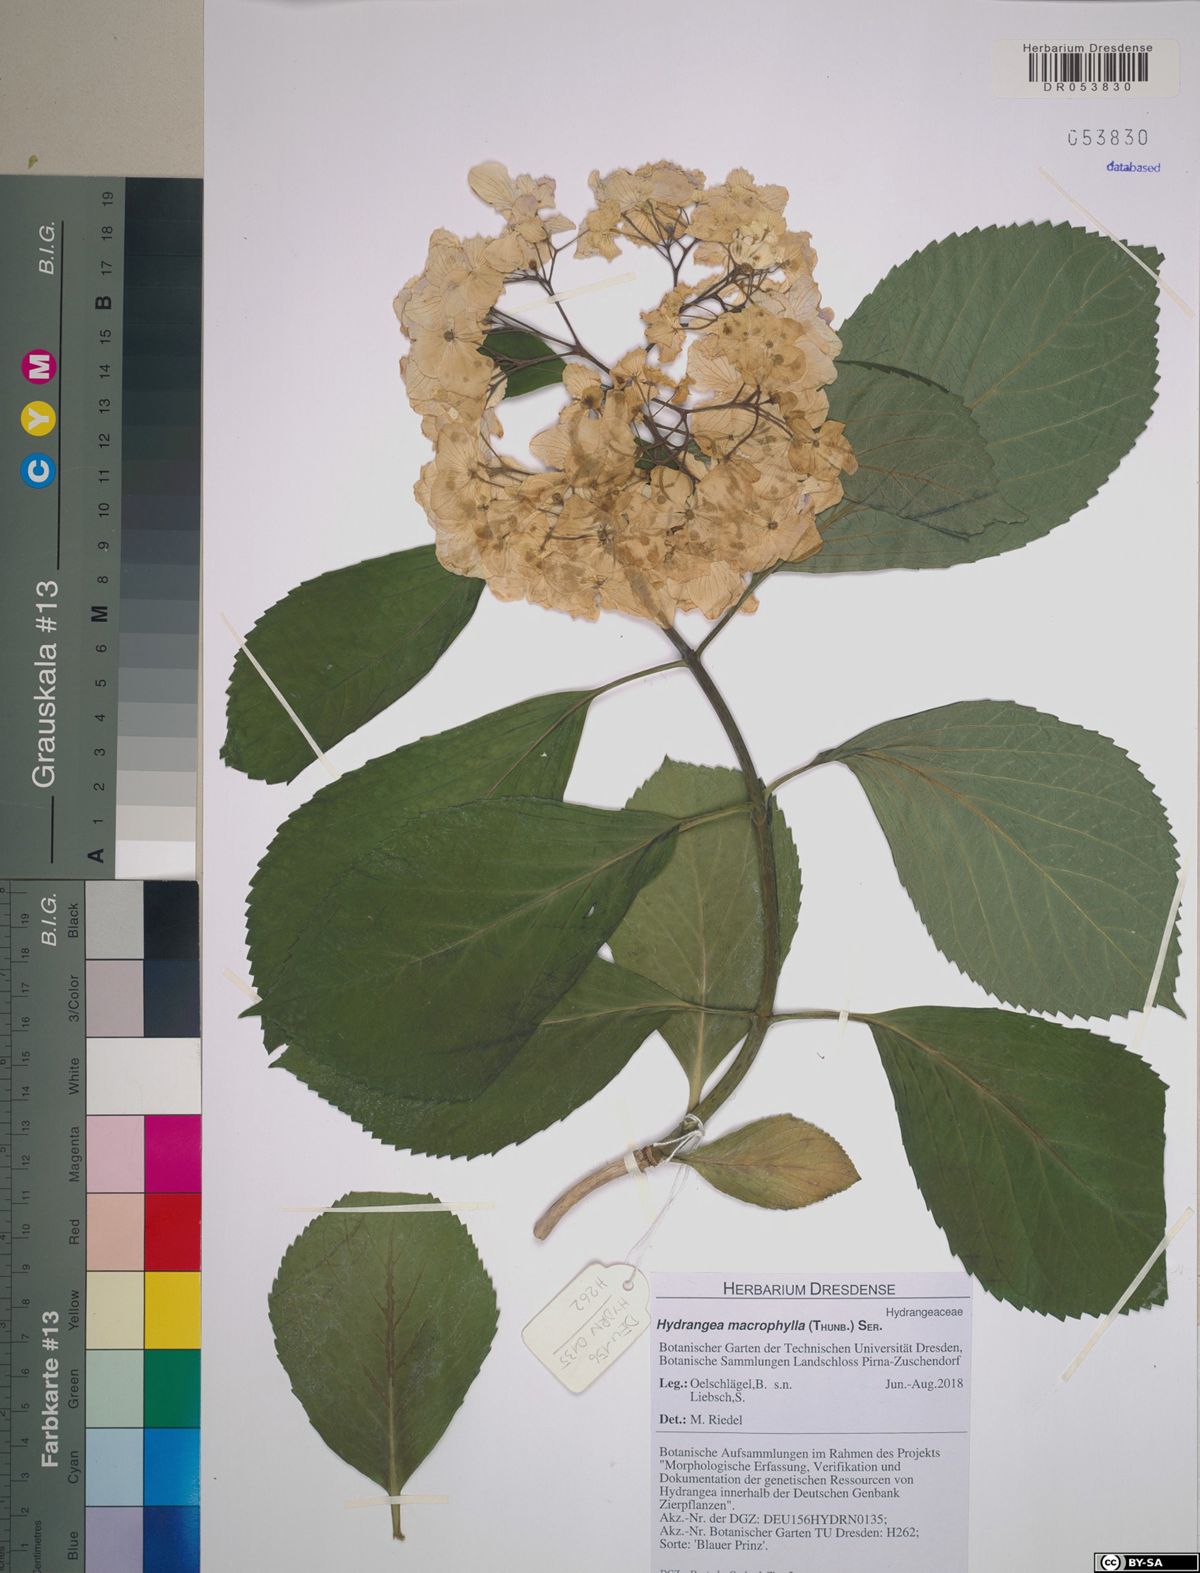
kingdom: Plantae
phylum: Tracheophyta
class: Magnoliopsida
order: Cornales
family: Hydrangeaceae
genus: Hydrangea
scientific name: Hydrangea macrophylla
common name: Hydrangea
